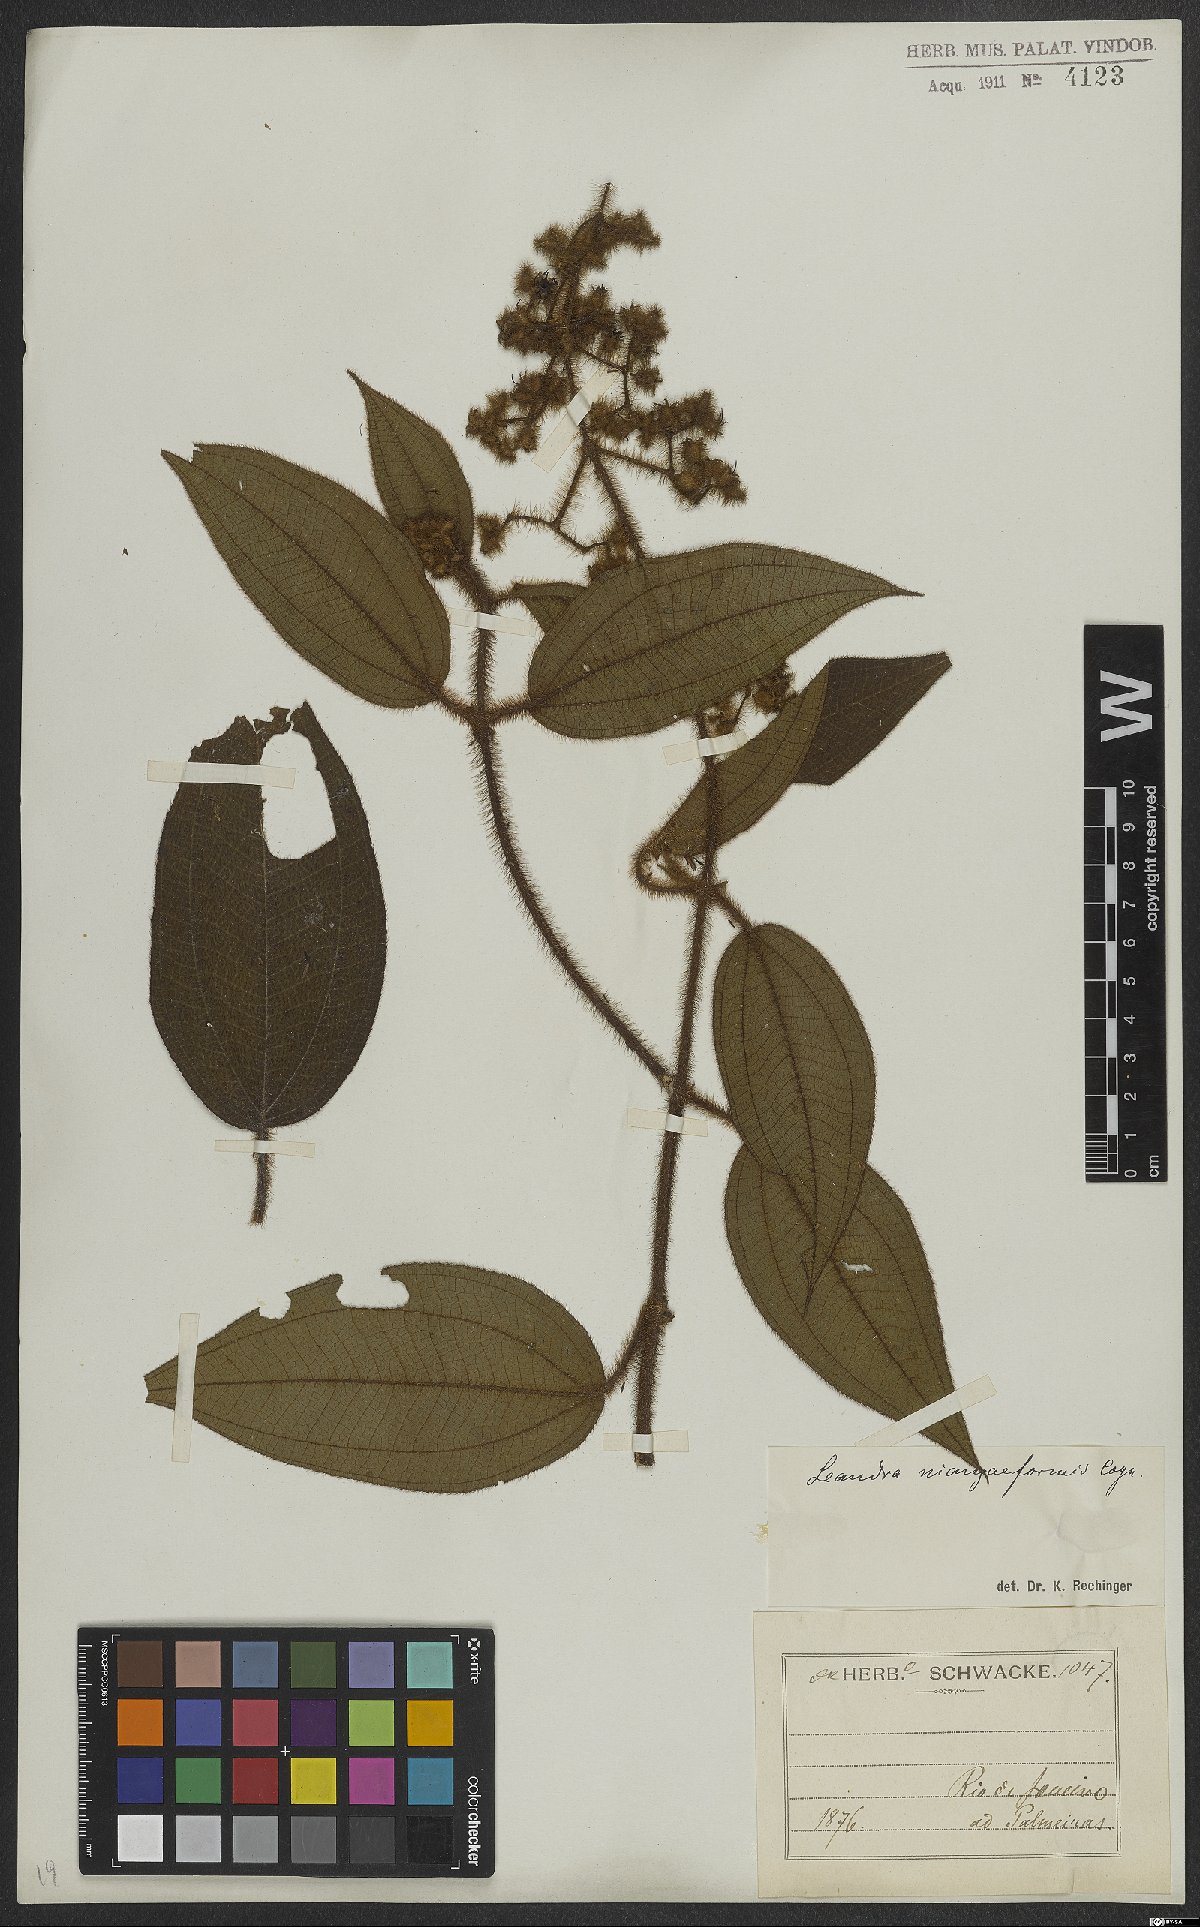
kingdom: Plantae
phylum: Tracheophyta
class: Magnoliopsida
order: Myrtales
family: Melastomataceae
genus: Miconia
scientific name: Miconia niangaeformis
